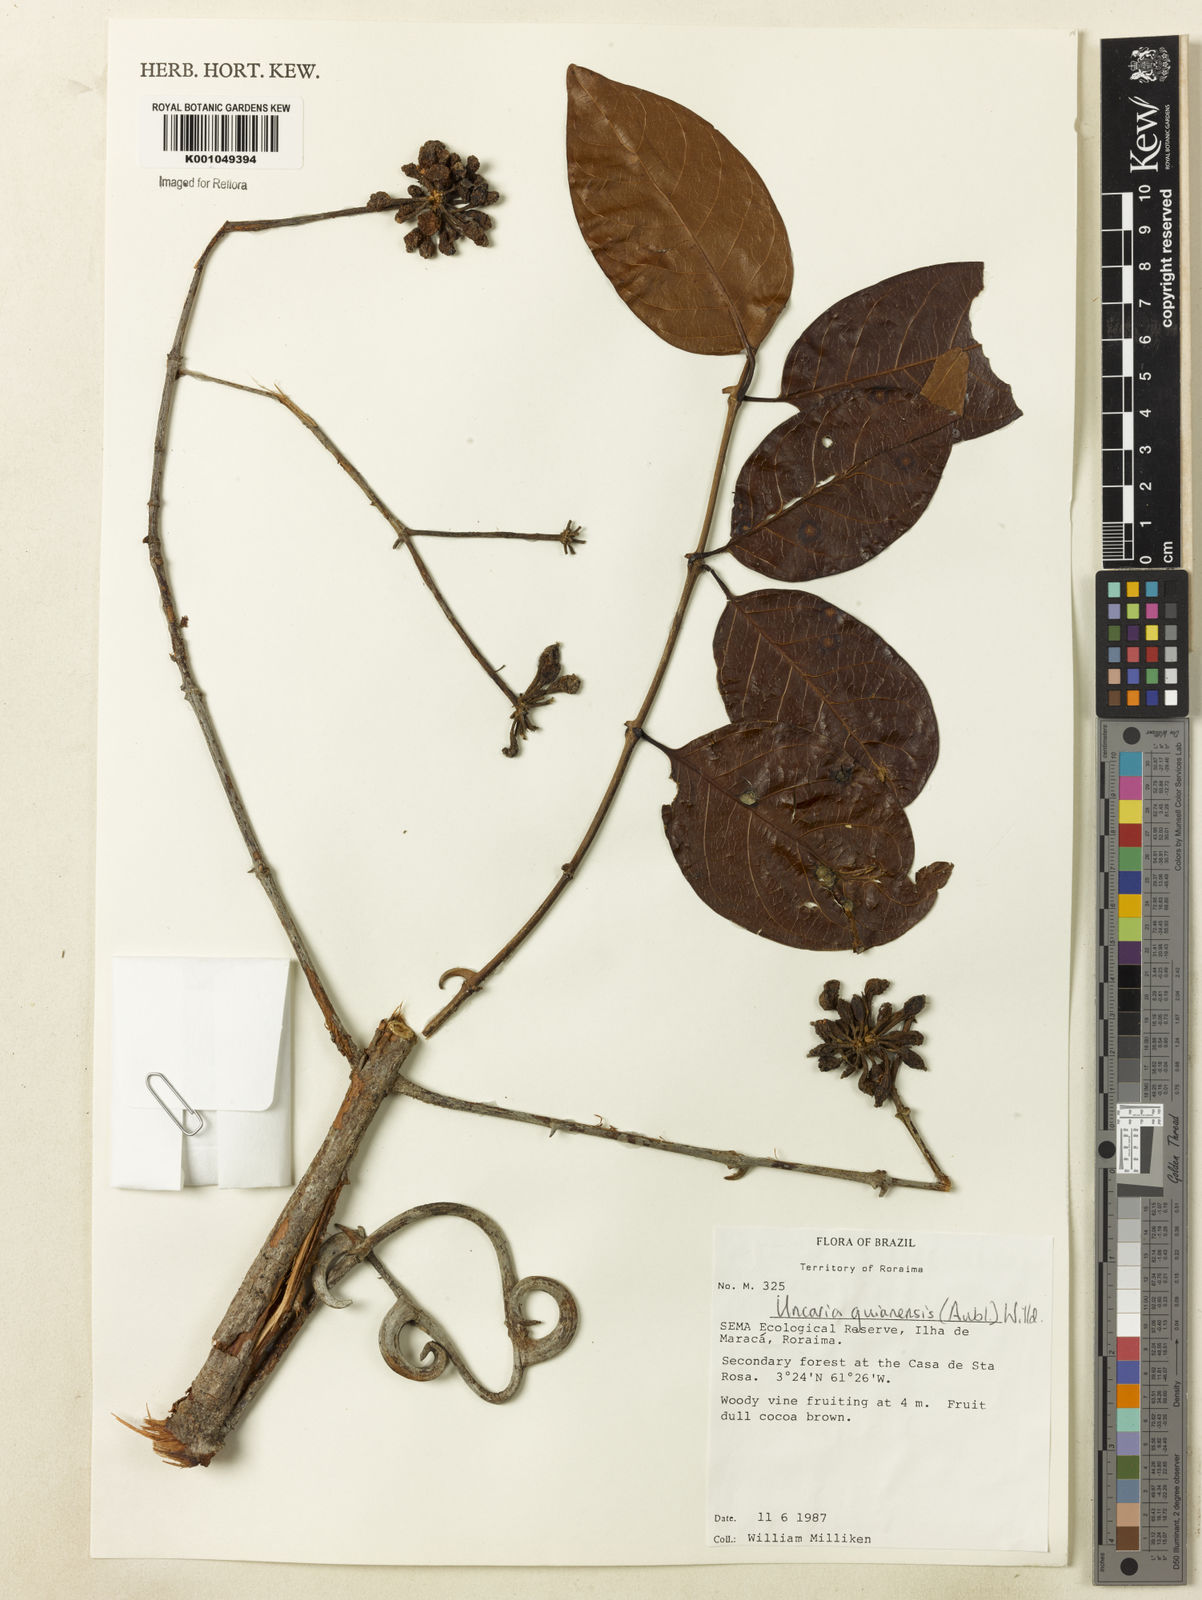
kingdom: Plantae
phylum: Tracheophyta
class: Magnoliopsida
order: Gentianales
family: Rubiaceae
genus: Uncaria
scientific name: Uncaria guianensis
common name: Cat's-claw
